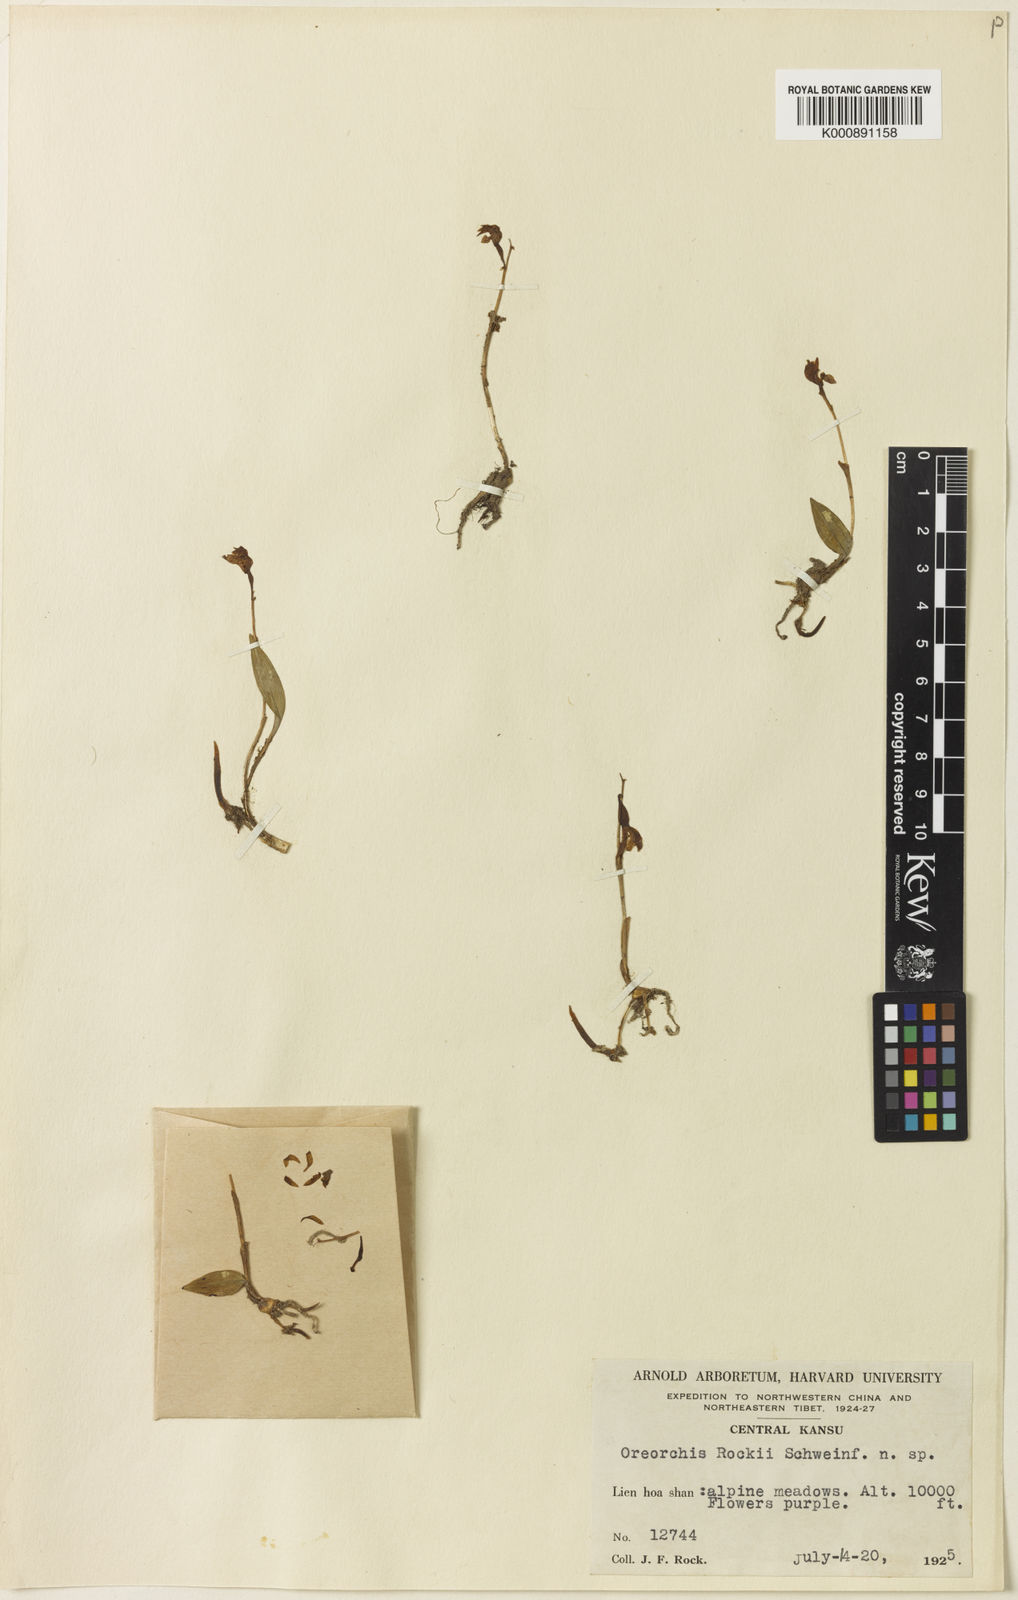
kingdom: Plantae
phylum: Tracheophyta
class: Liliopsida
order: Asparagales
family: Orchidaceae
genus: Oreorchis
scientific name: Oreorchis oligantha
